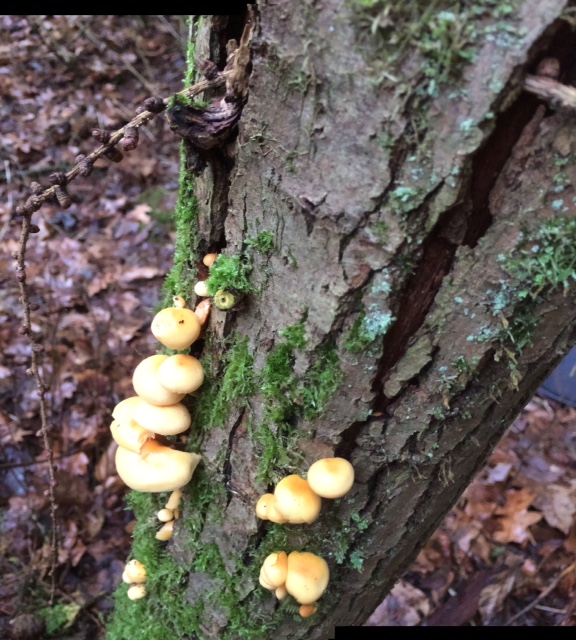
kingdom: Fungi
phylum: Basidiomycota
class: Agaricomycetes
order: Agaricales
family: Physalacriaceae
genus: Flammulina
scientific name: Flammulina rossica
